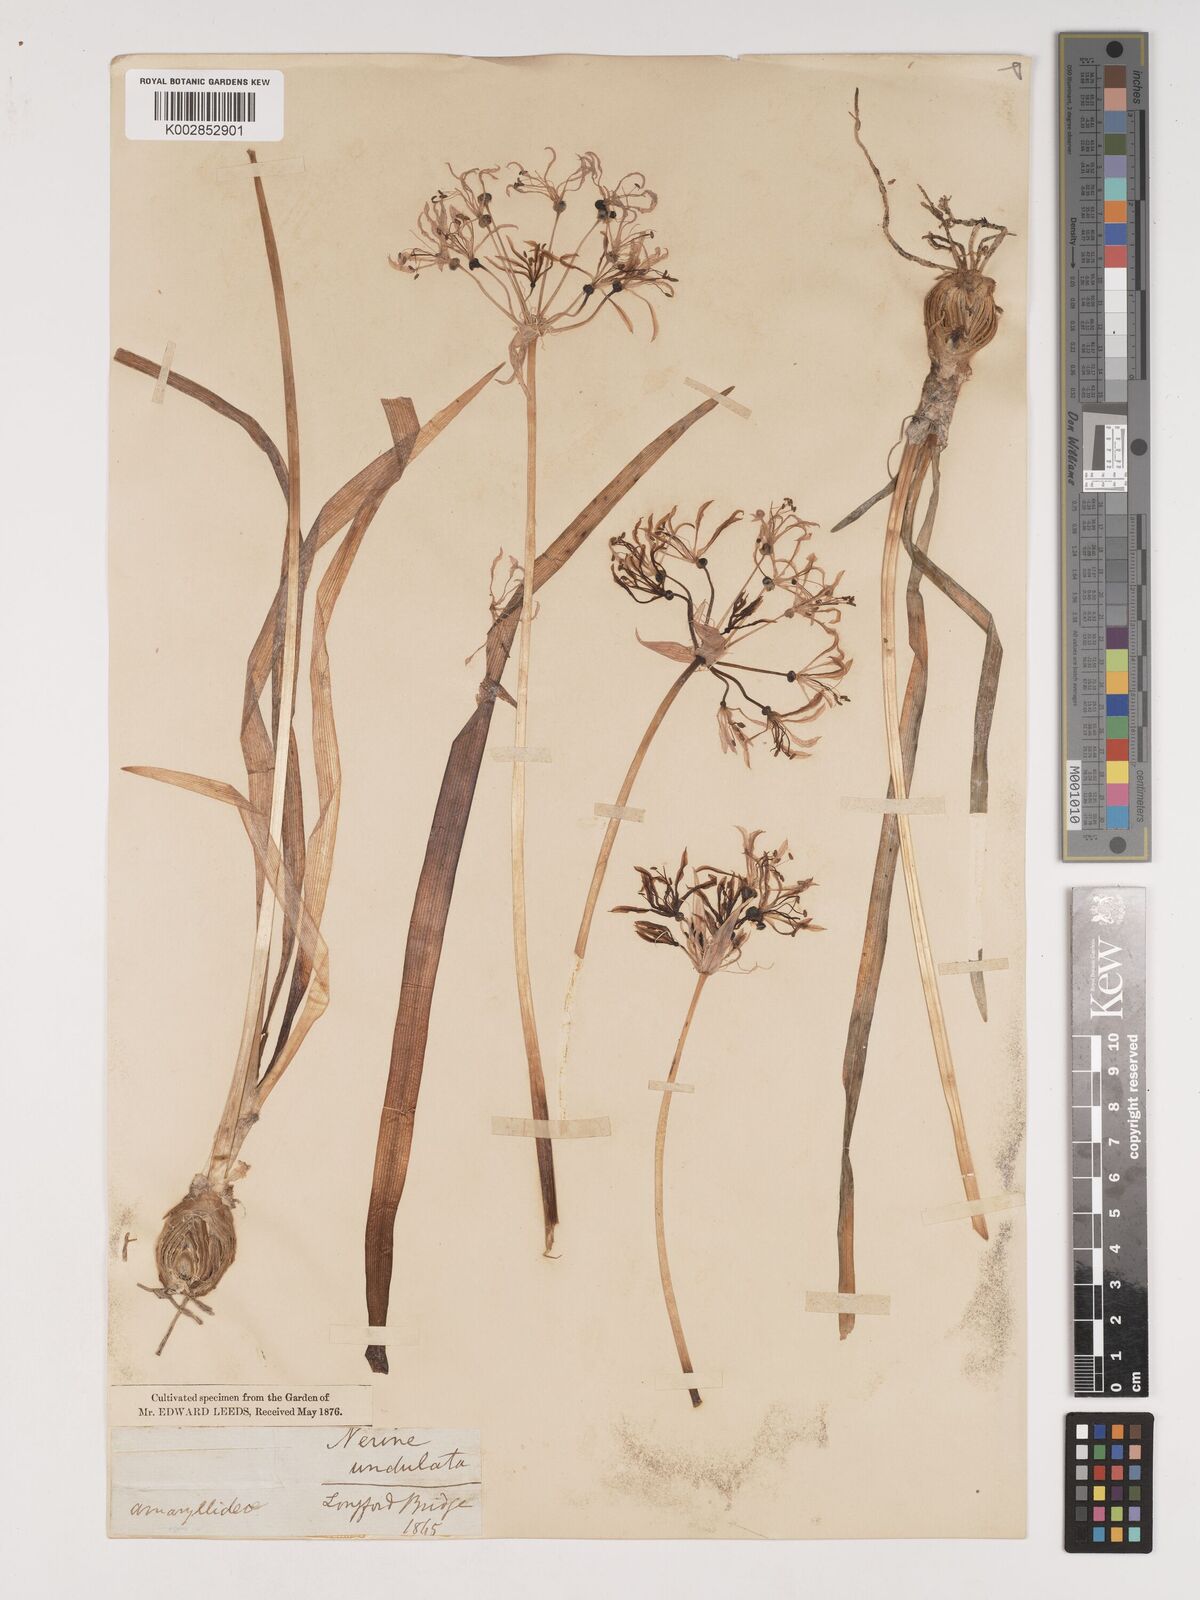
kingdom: Plantae
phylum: Tracheophyta
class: Liliopsida
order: Asparagales
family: Amaryllidaceae
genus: Nerine
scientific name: Nerine undulata
